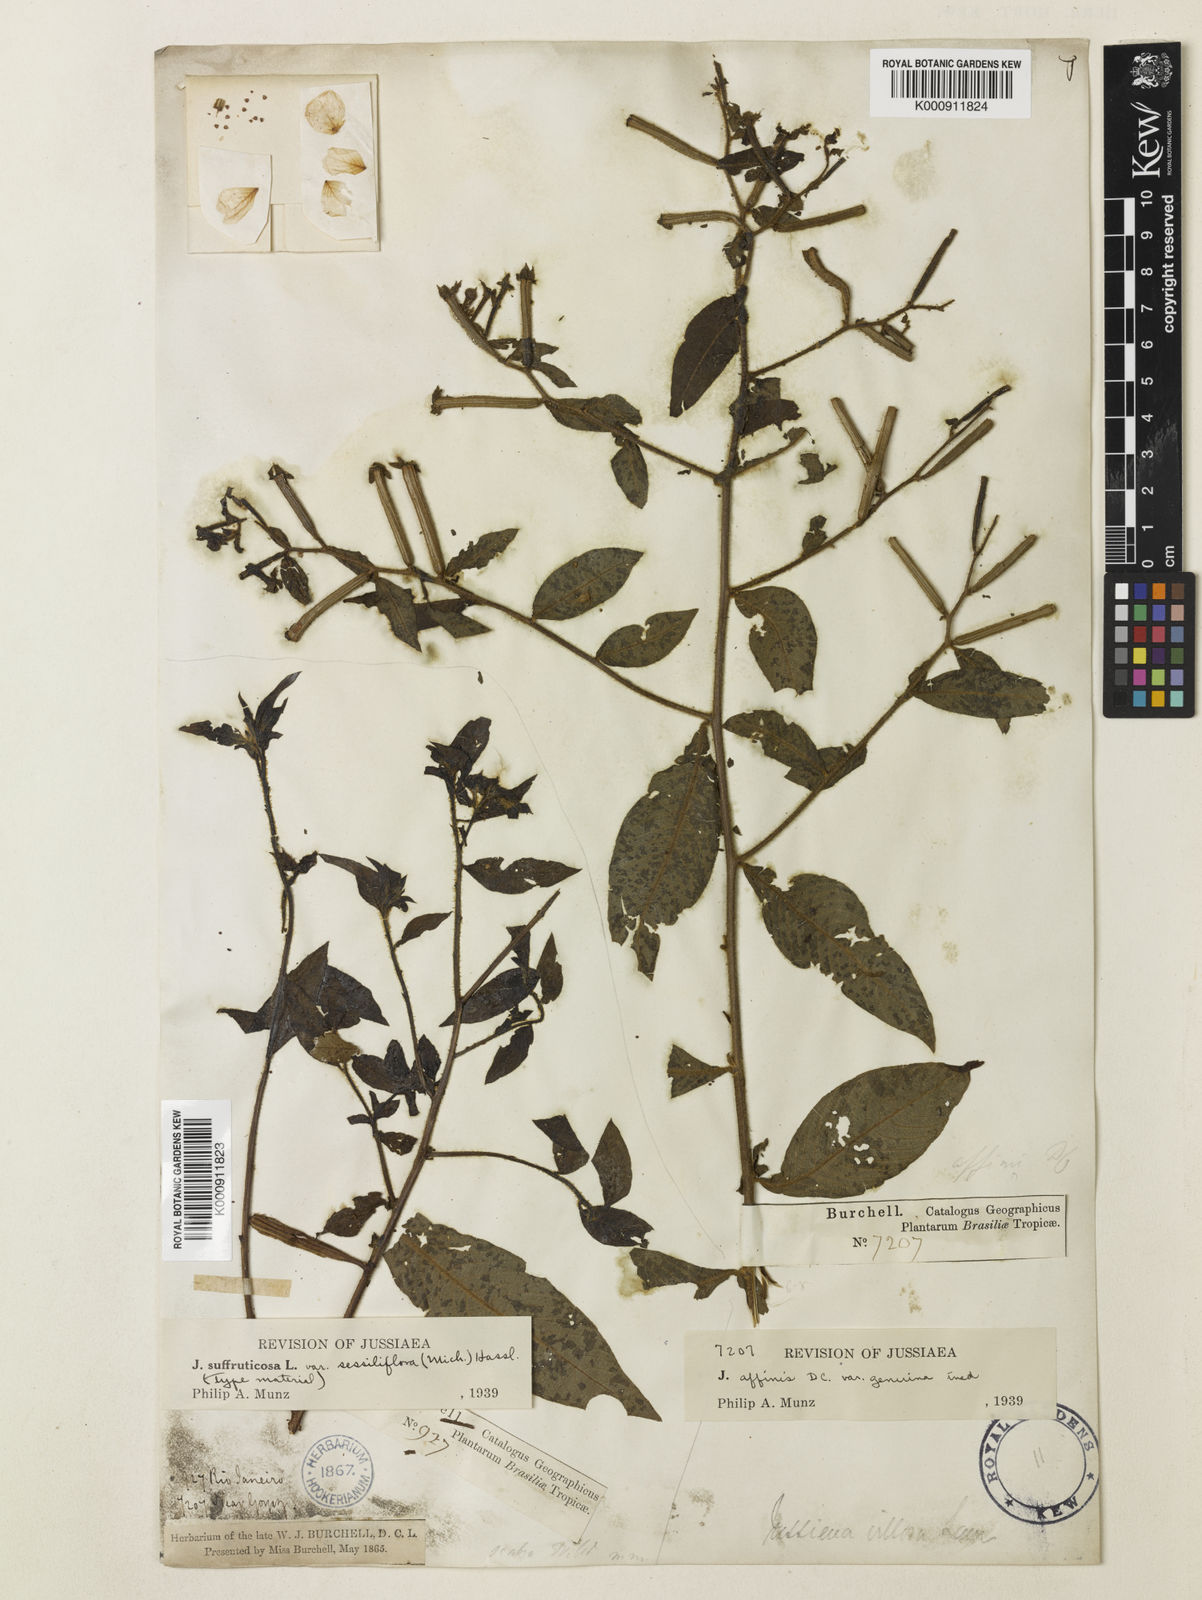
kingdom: Plantae
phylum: Tracheophyta
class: Magnoliopsida
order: Myrtales
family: Onagraceae
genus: Ludwigia
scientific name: Ludwigia octovalvis
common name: Water-primrose
